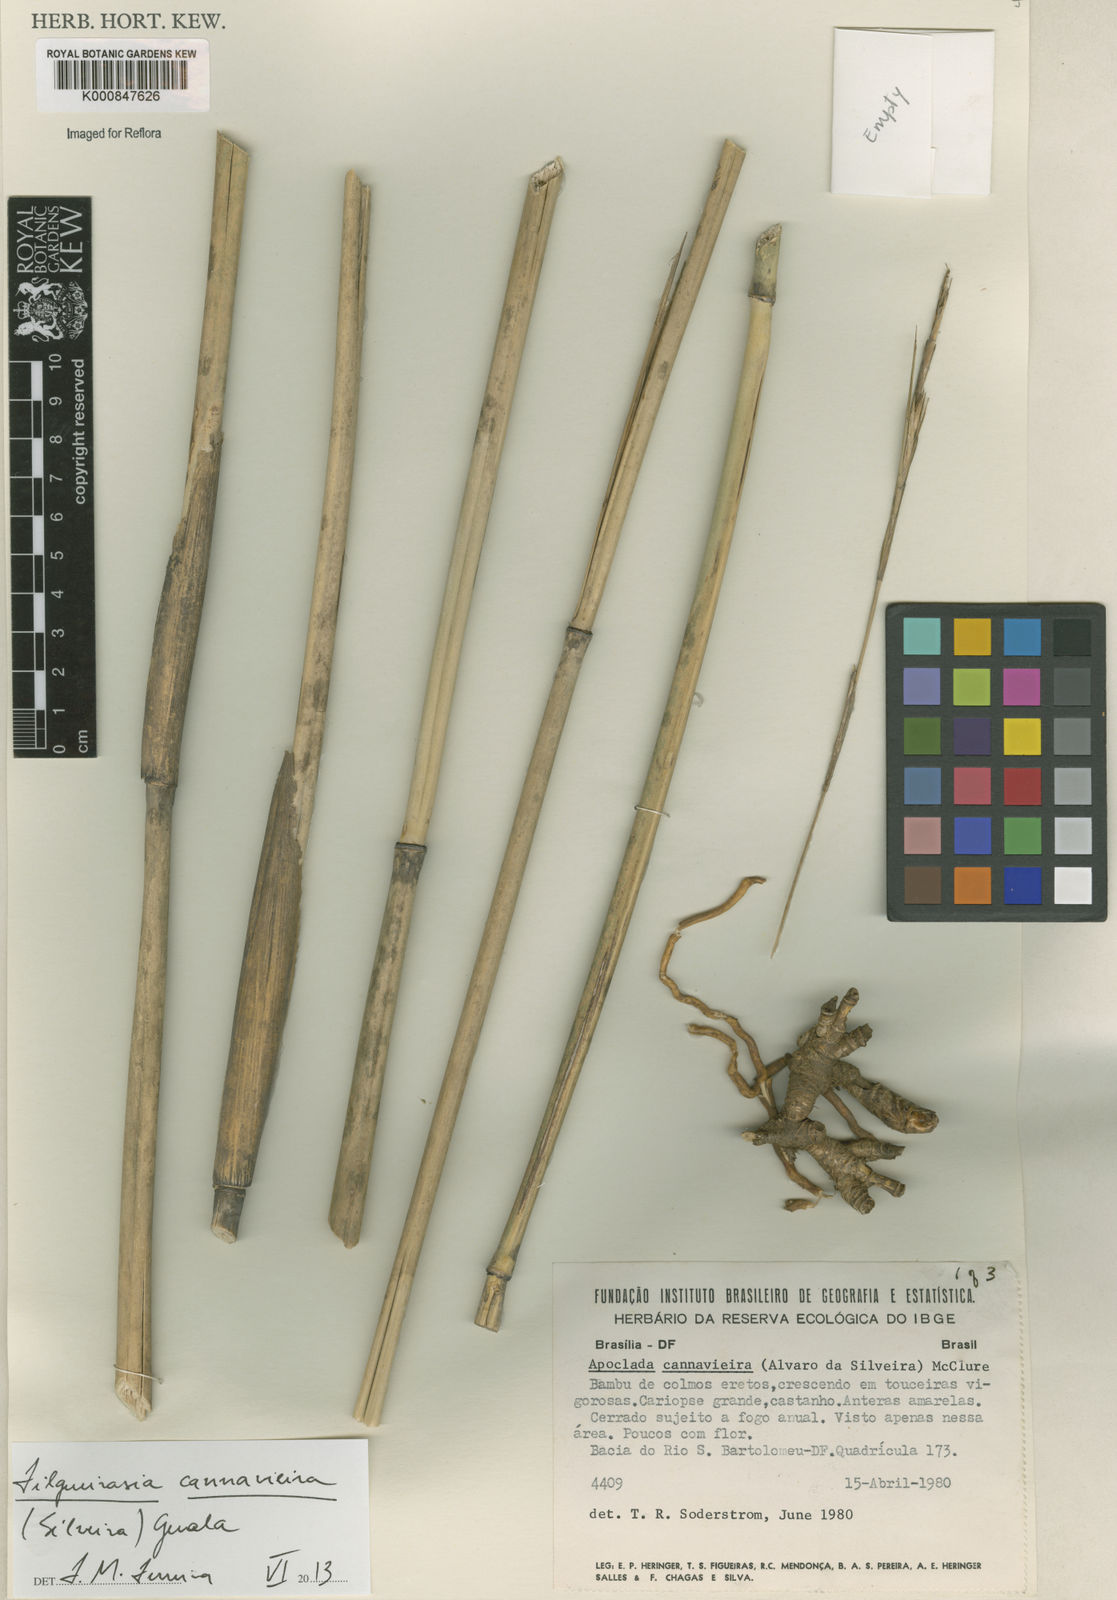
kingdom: Plantae
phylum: Tracheophyta
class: Liliopsida
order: Poales
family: Poaceae
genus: Filgueirasia
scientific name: Filgueirasia cannavieira
